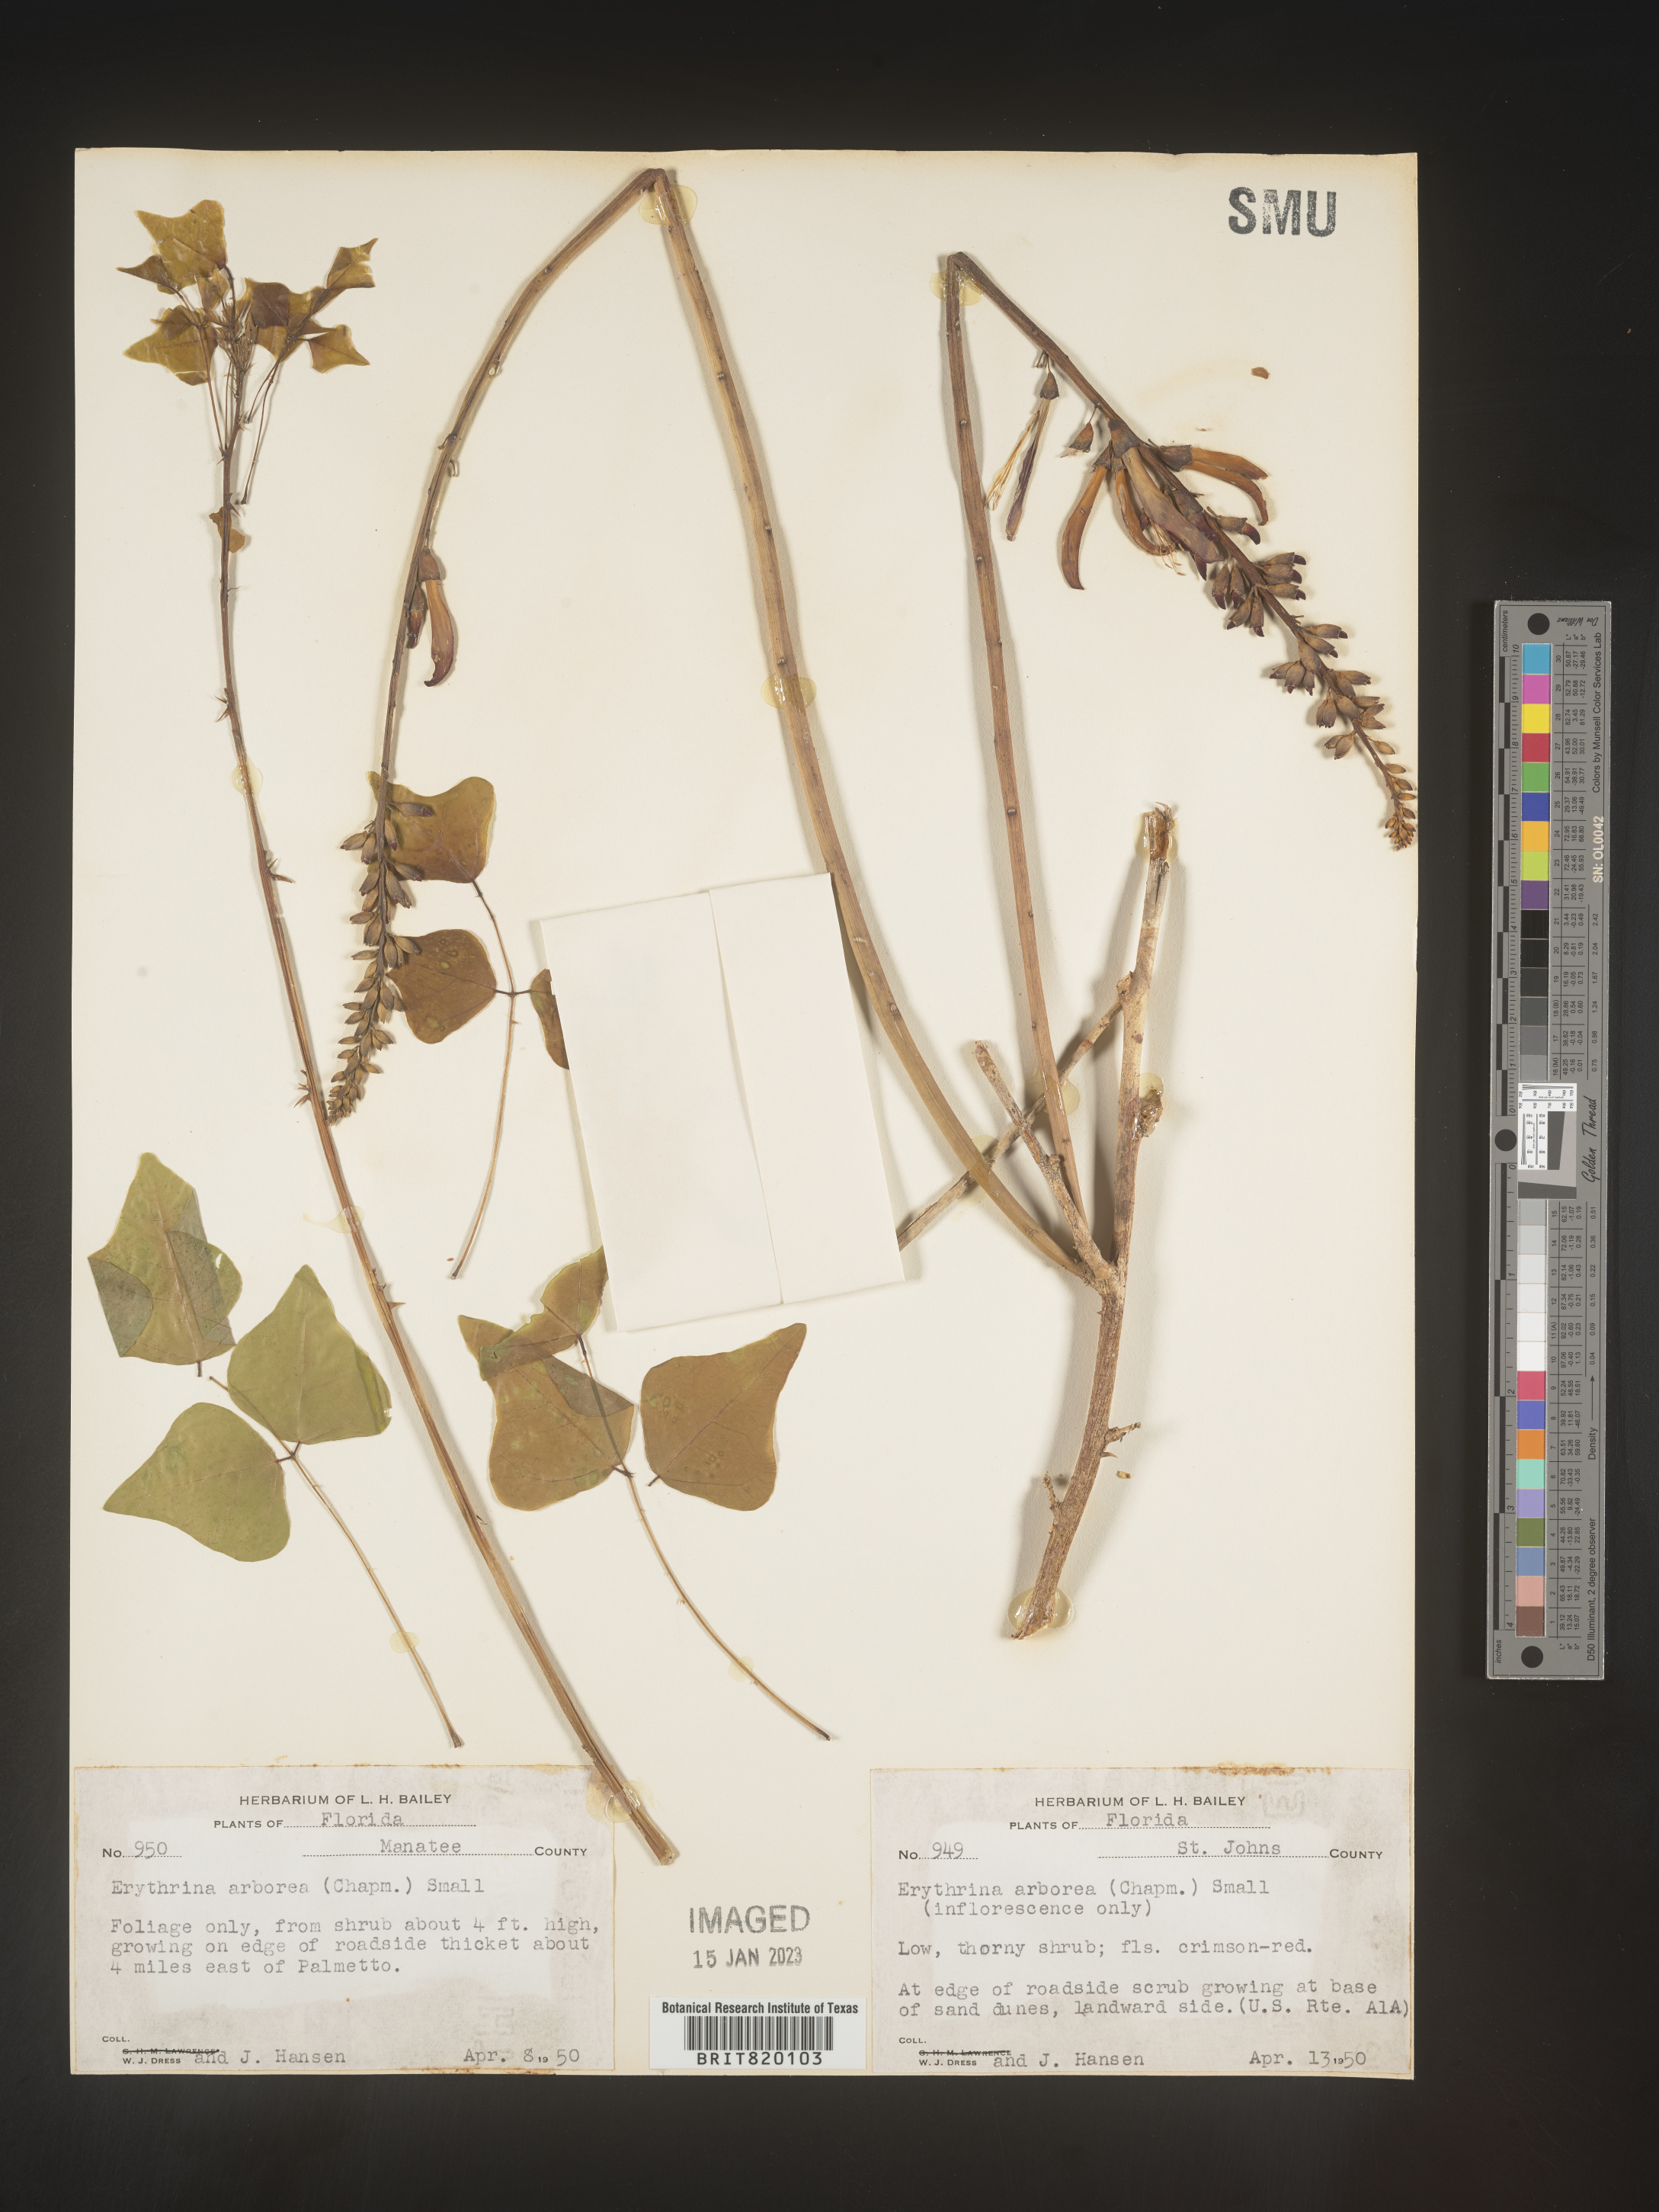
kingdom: Plantae
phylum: Tracheophyta
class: Magnoliopsida
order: Fabales
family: Fabaceae
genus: Erythrina
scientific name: Erythrina herbacea
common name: Coral-bean
